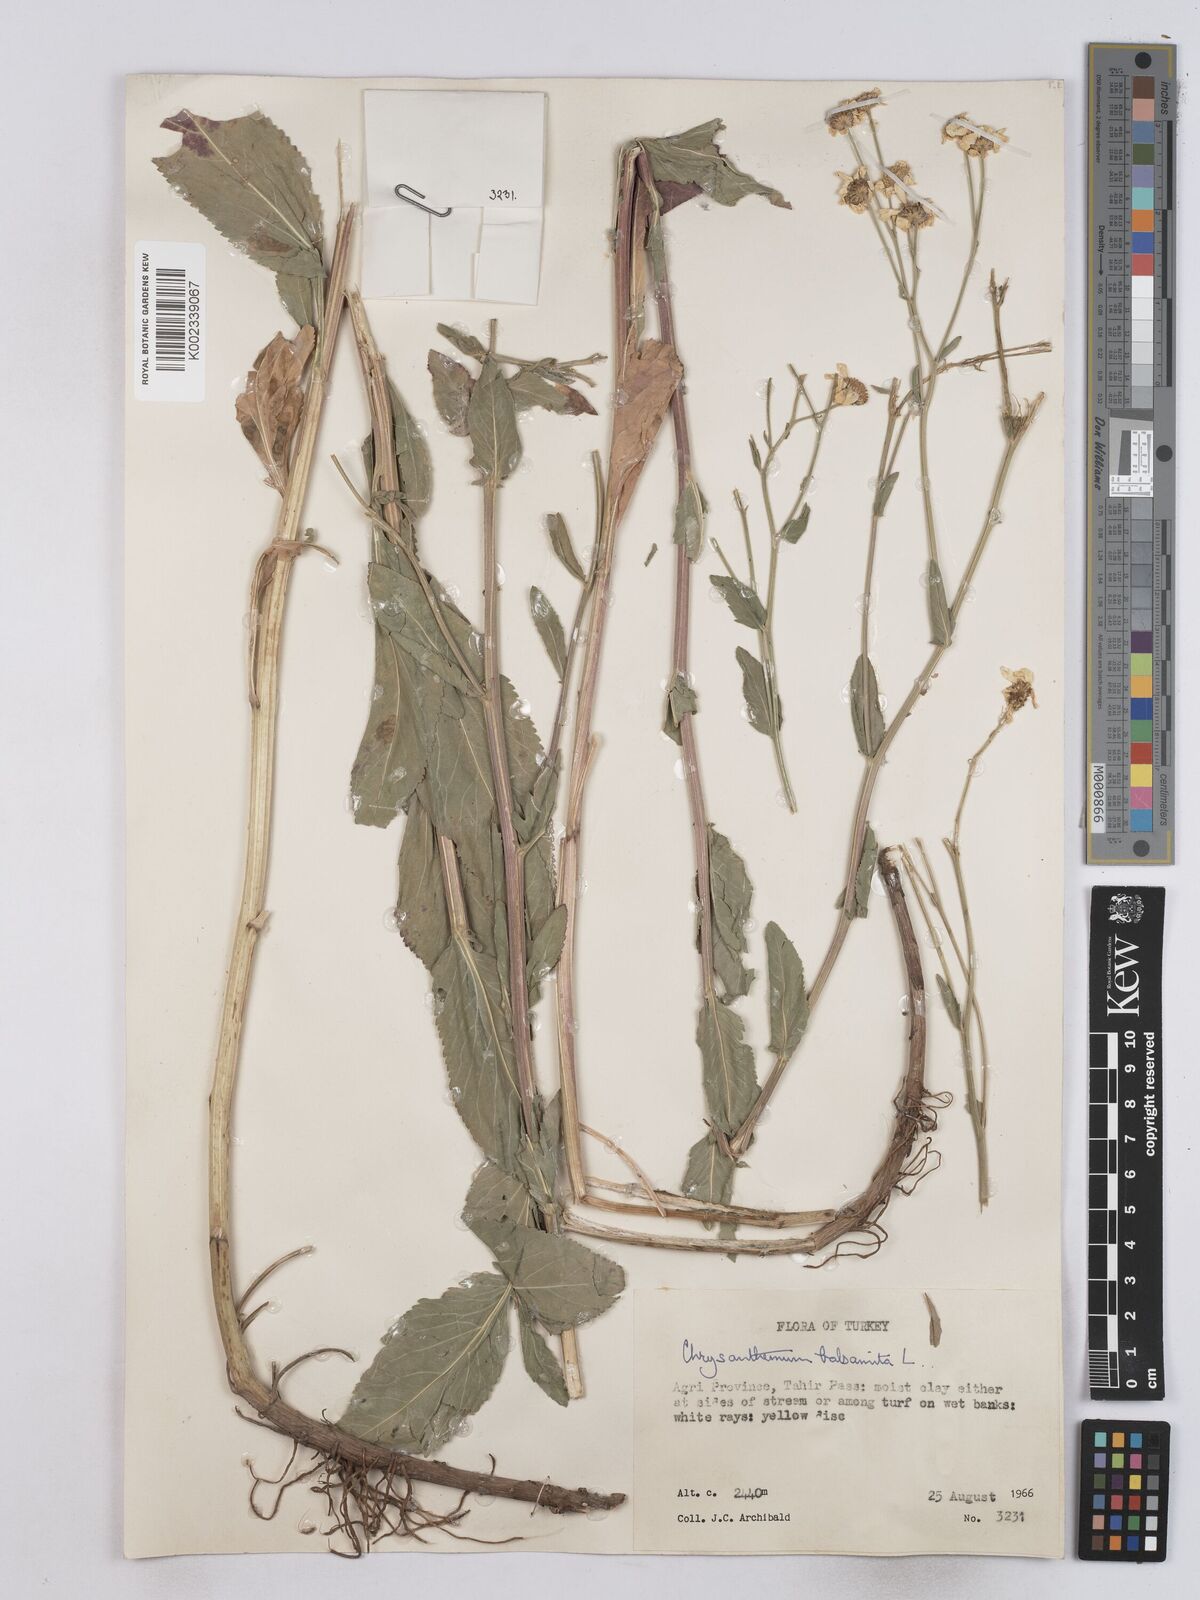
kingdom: Plantae
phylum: Tracheophyta
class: Magnoliopsida
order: Asterales
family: Asteraceae
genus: Tanacetum
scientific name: Tanacetum balsamita
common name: Costmary
